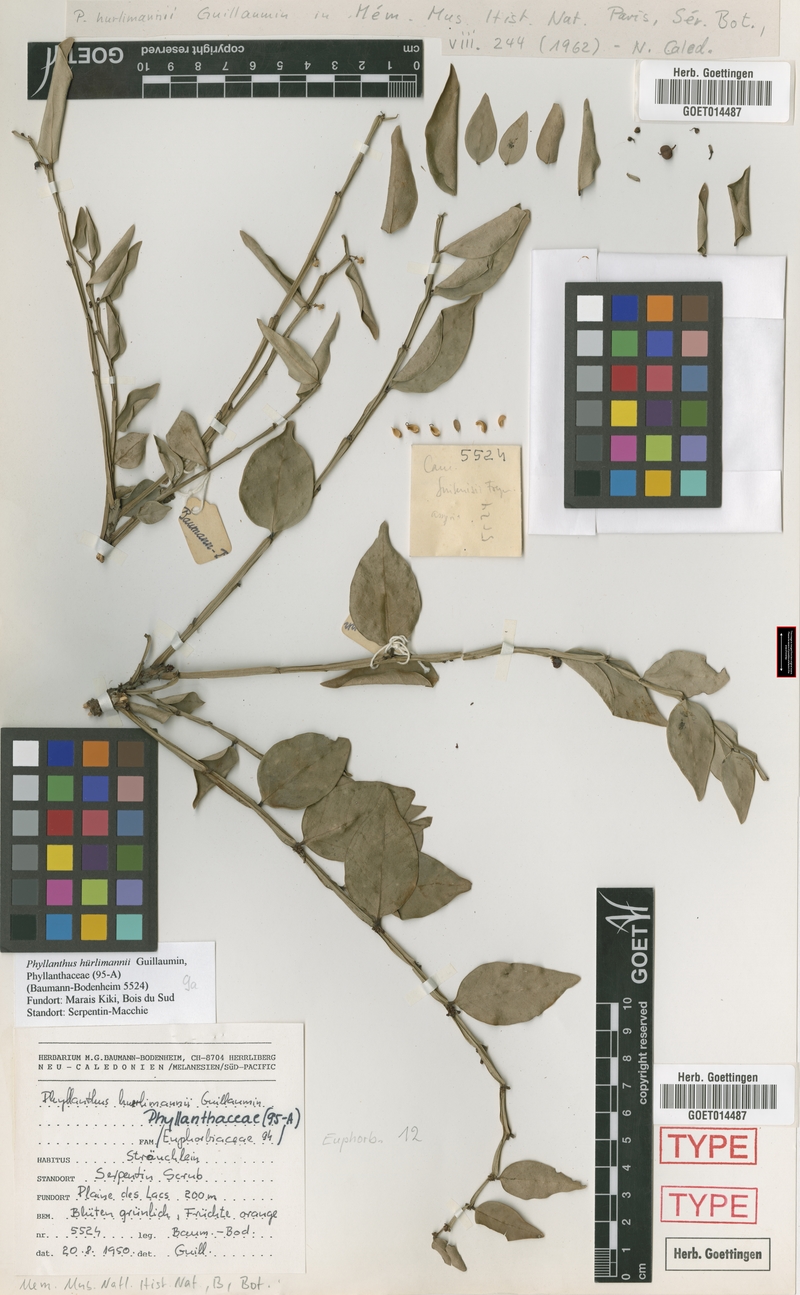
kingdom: Plantae
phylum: Tracheophyta
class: Magnoliopsida
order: Malpighiales
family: Phyllanthaceae
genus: Phyllanthus
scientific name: Phyllanthus vulcani
